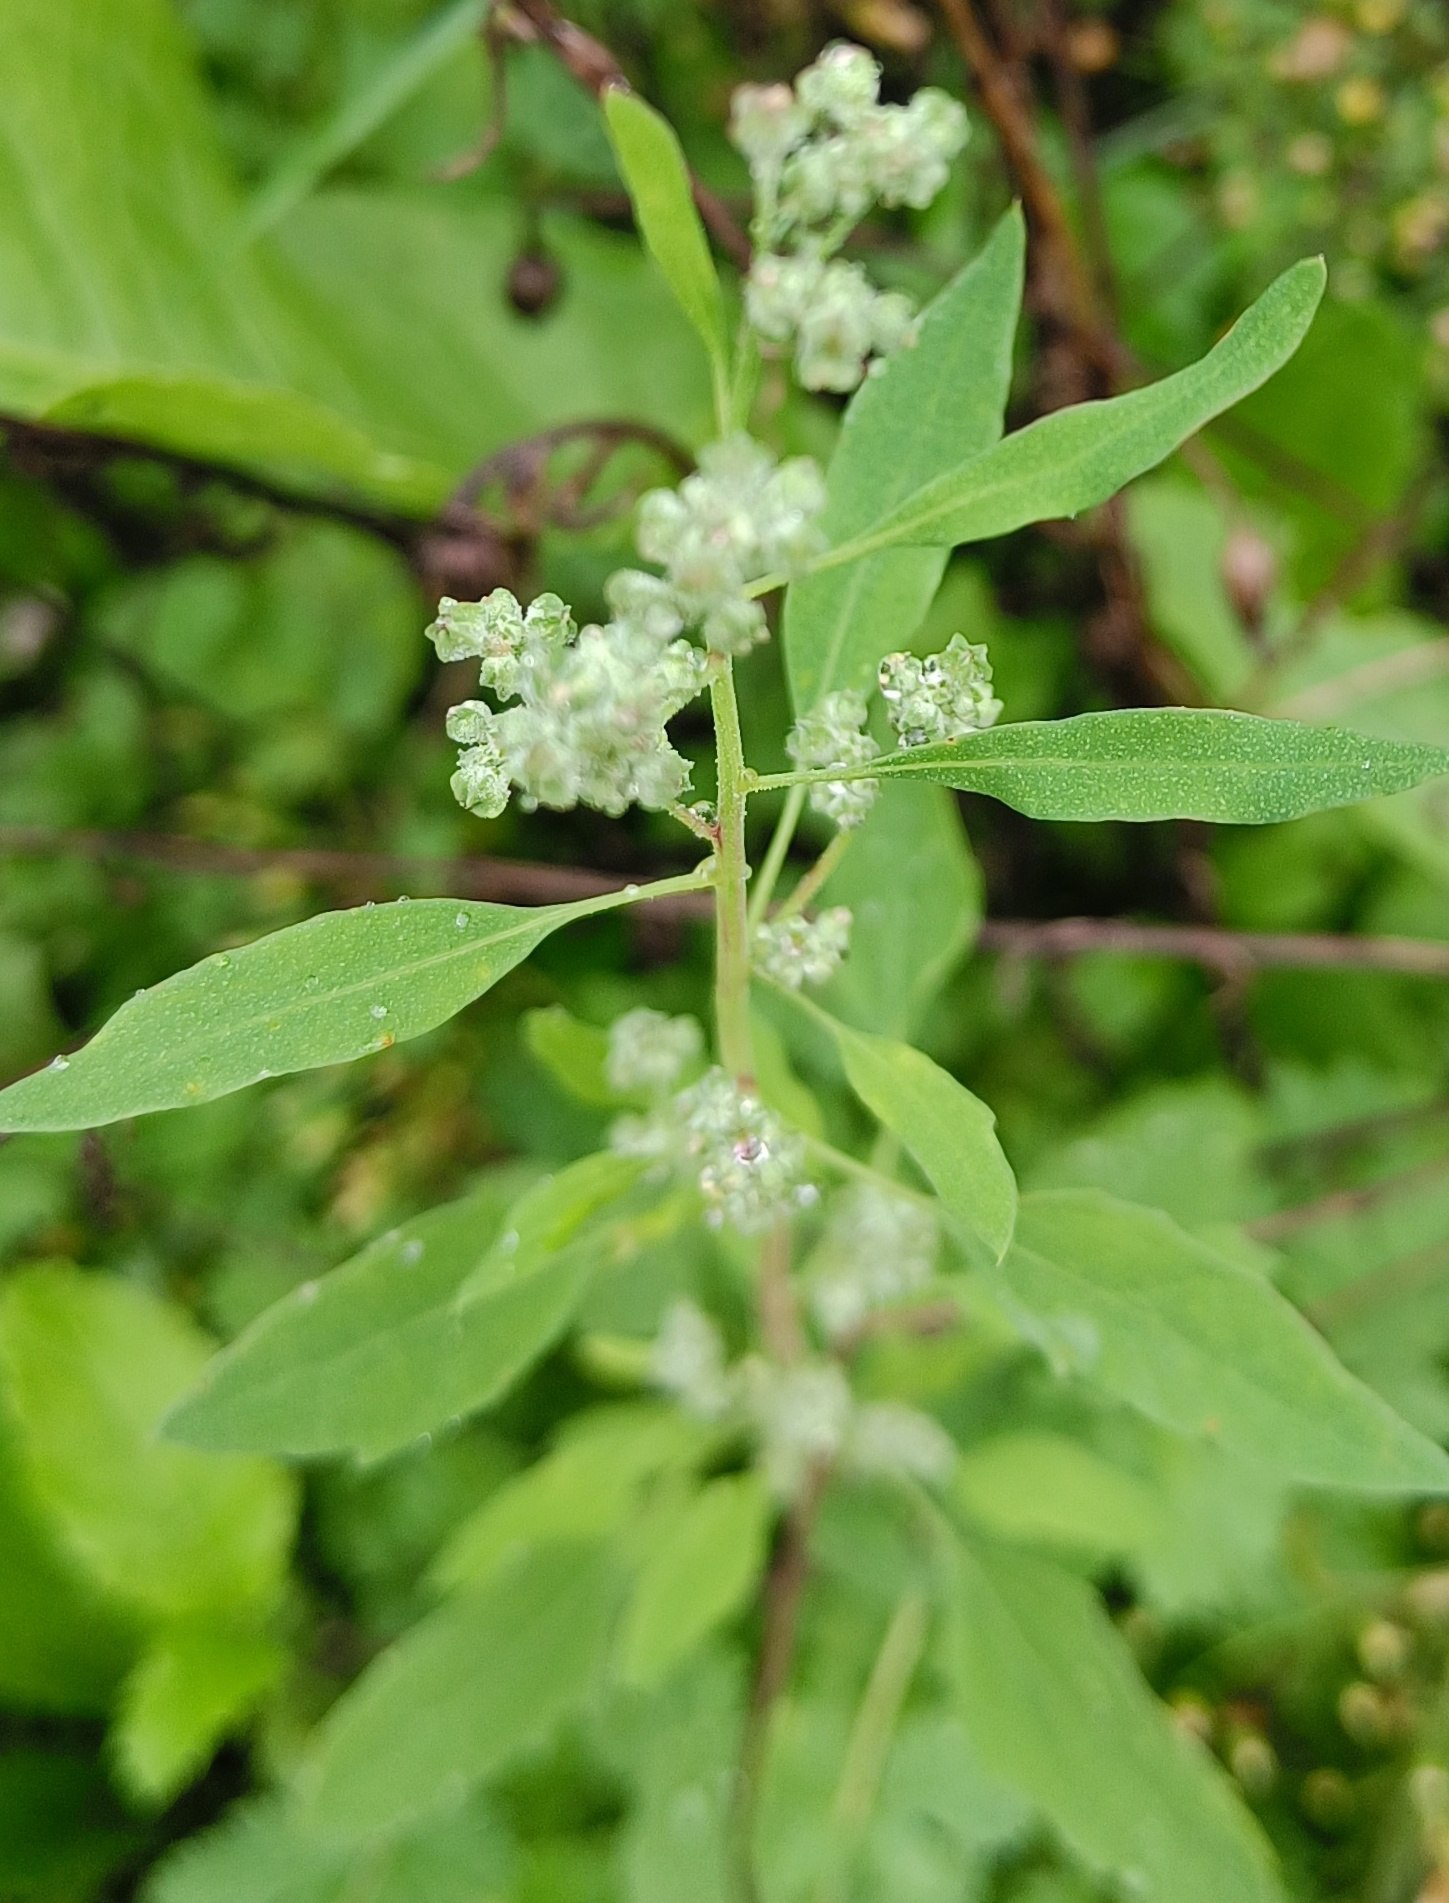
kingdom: Plantae
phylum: Tracheophyta
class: Magnoliopsida
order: Caryophyllales
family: Amaranthaceae
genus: Chenopodium
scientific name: Chenopodium album
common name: Hvidmelet gåsefod
